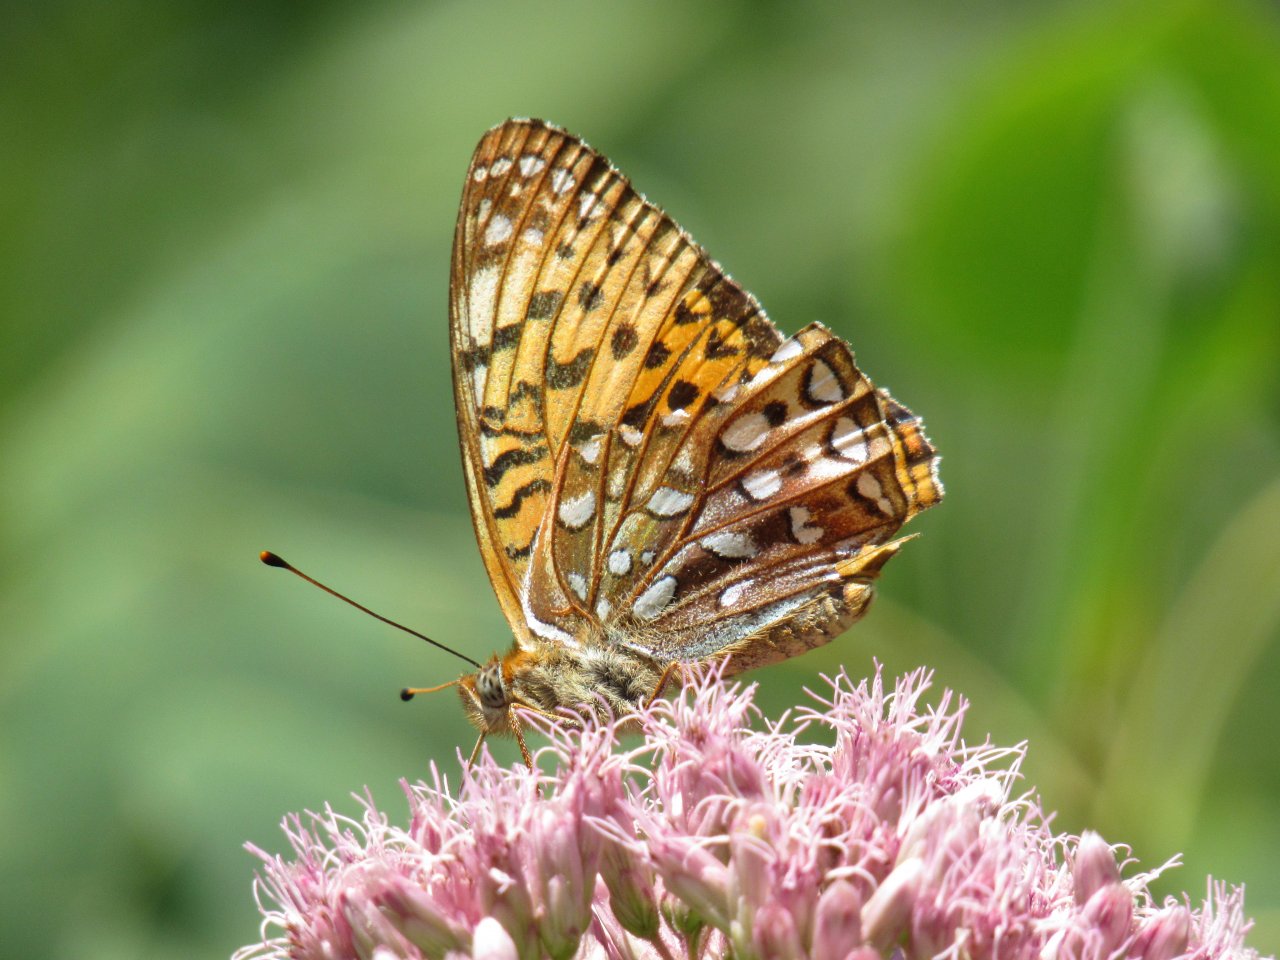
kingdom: Animalia
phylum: Arthropoda
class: Insecta
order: Lepidoptera
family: Nymphalidae
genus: Speyeria
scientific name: Speyeria atlantis
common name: Atlantis Fritillary
